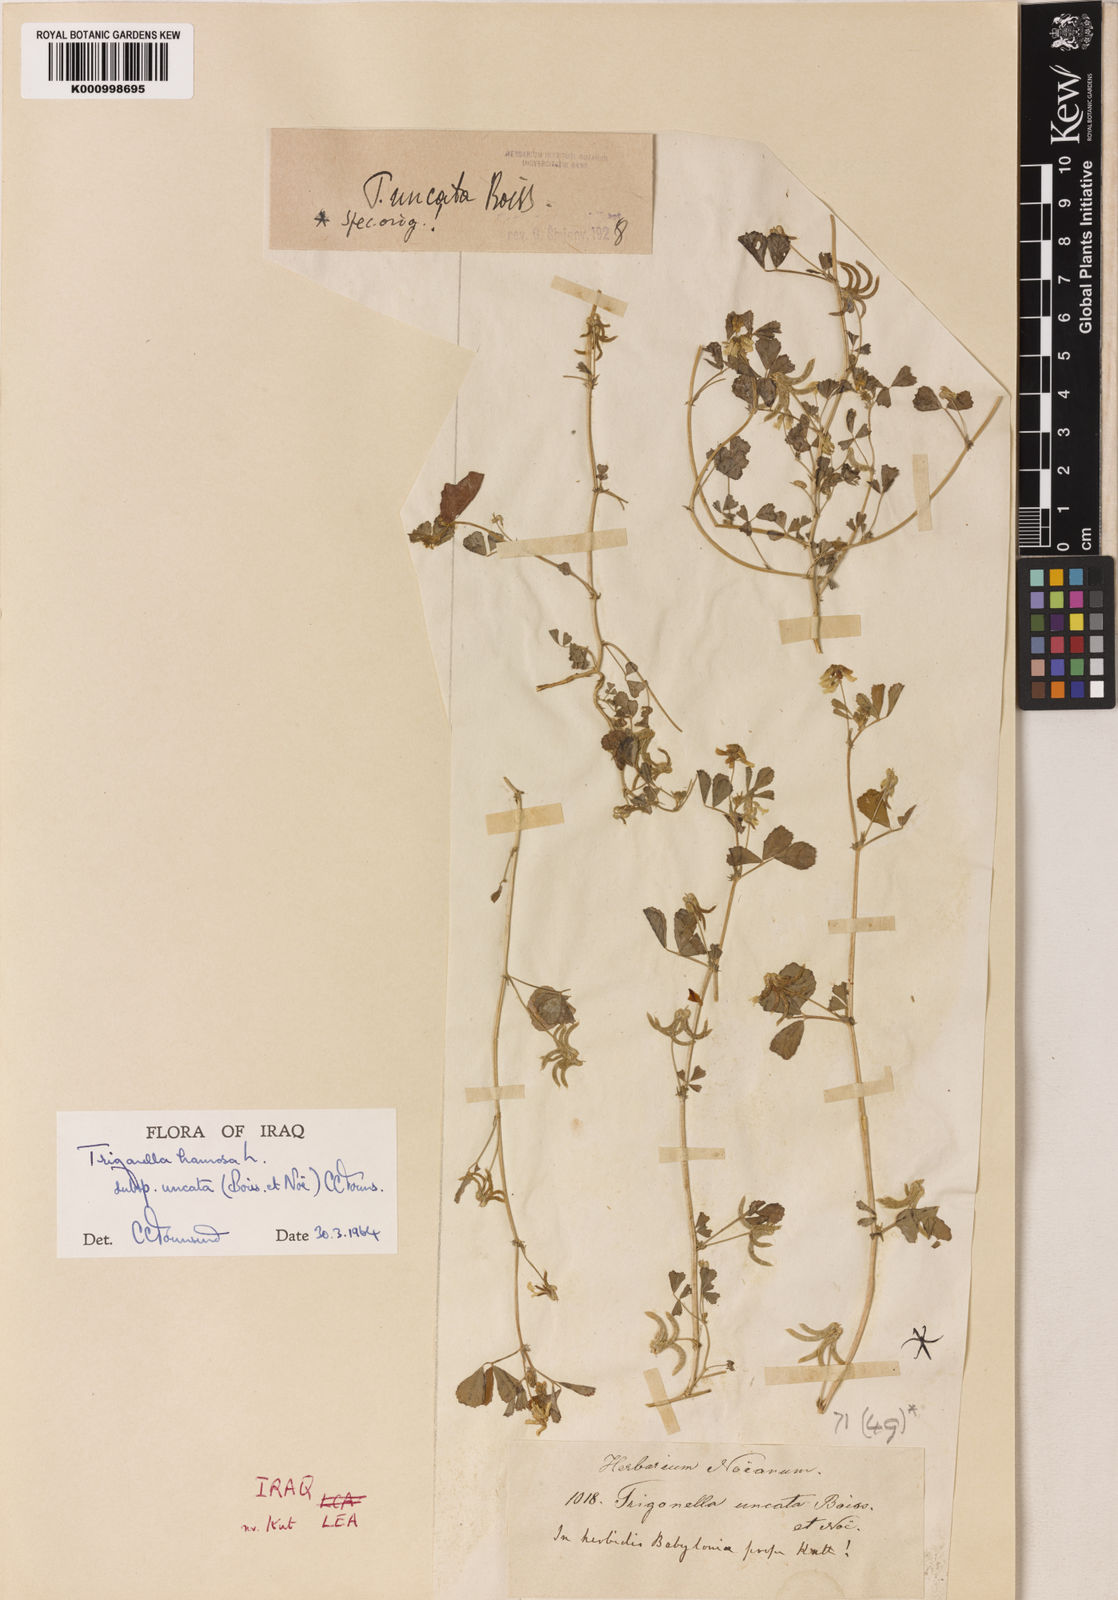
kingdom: Plantae
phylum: Tracheophyta
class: Magnoliopsida
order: Fabales
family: Fabaceae
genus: Trigonella
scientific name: Trigonella
